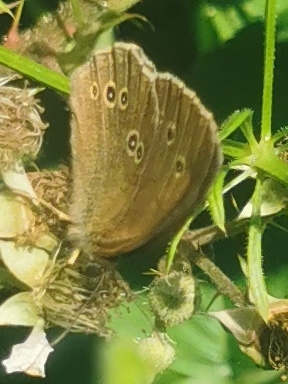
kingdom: Animalia
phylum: Arthropoda
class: Insecta
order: Lepidoptera
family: Nymphalidae
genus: Aphantopus
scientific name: Aphantopus hyperantus
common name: Engrandøje
